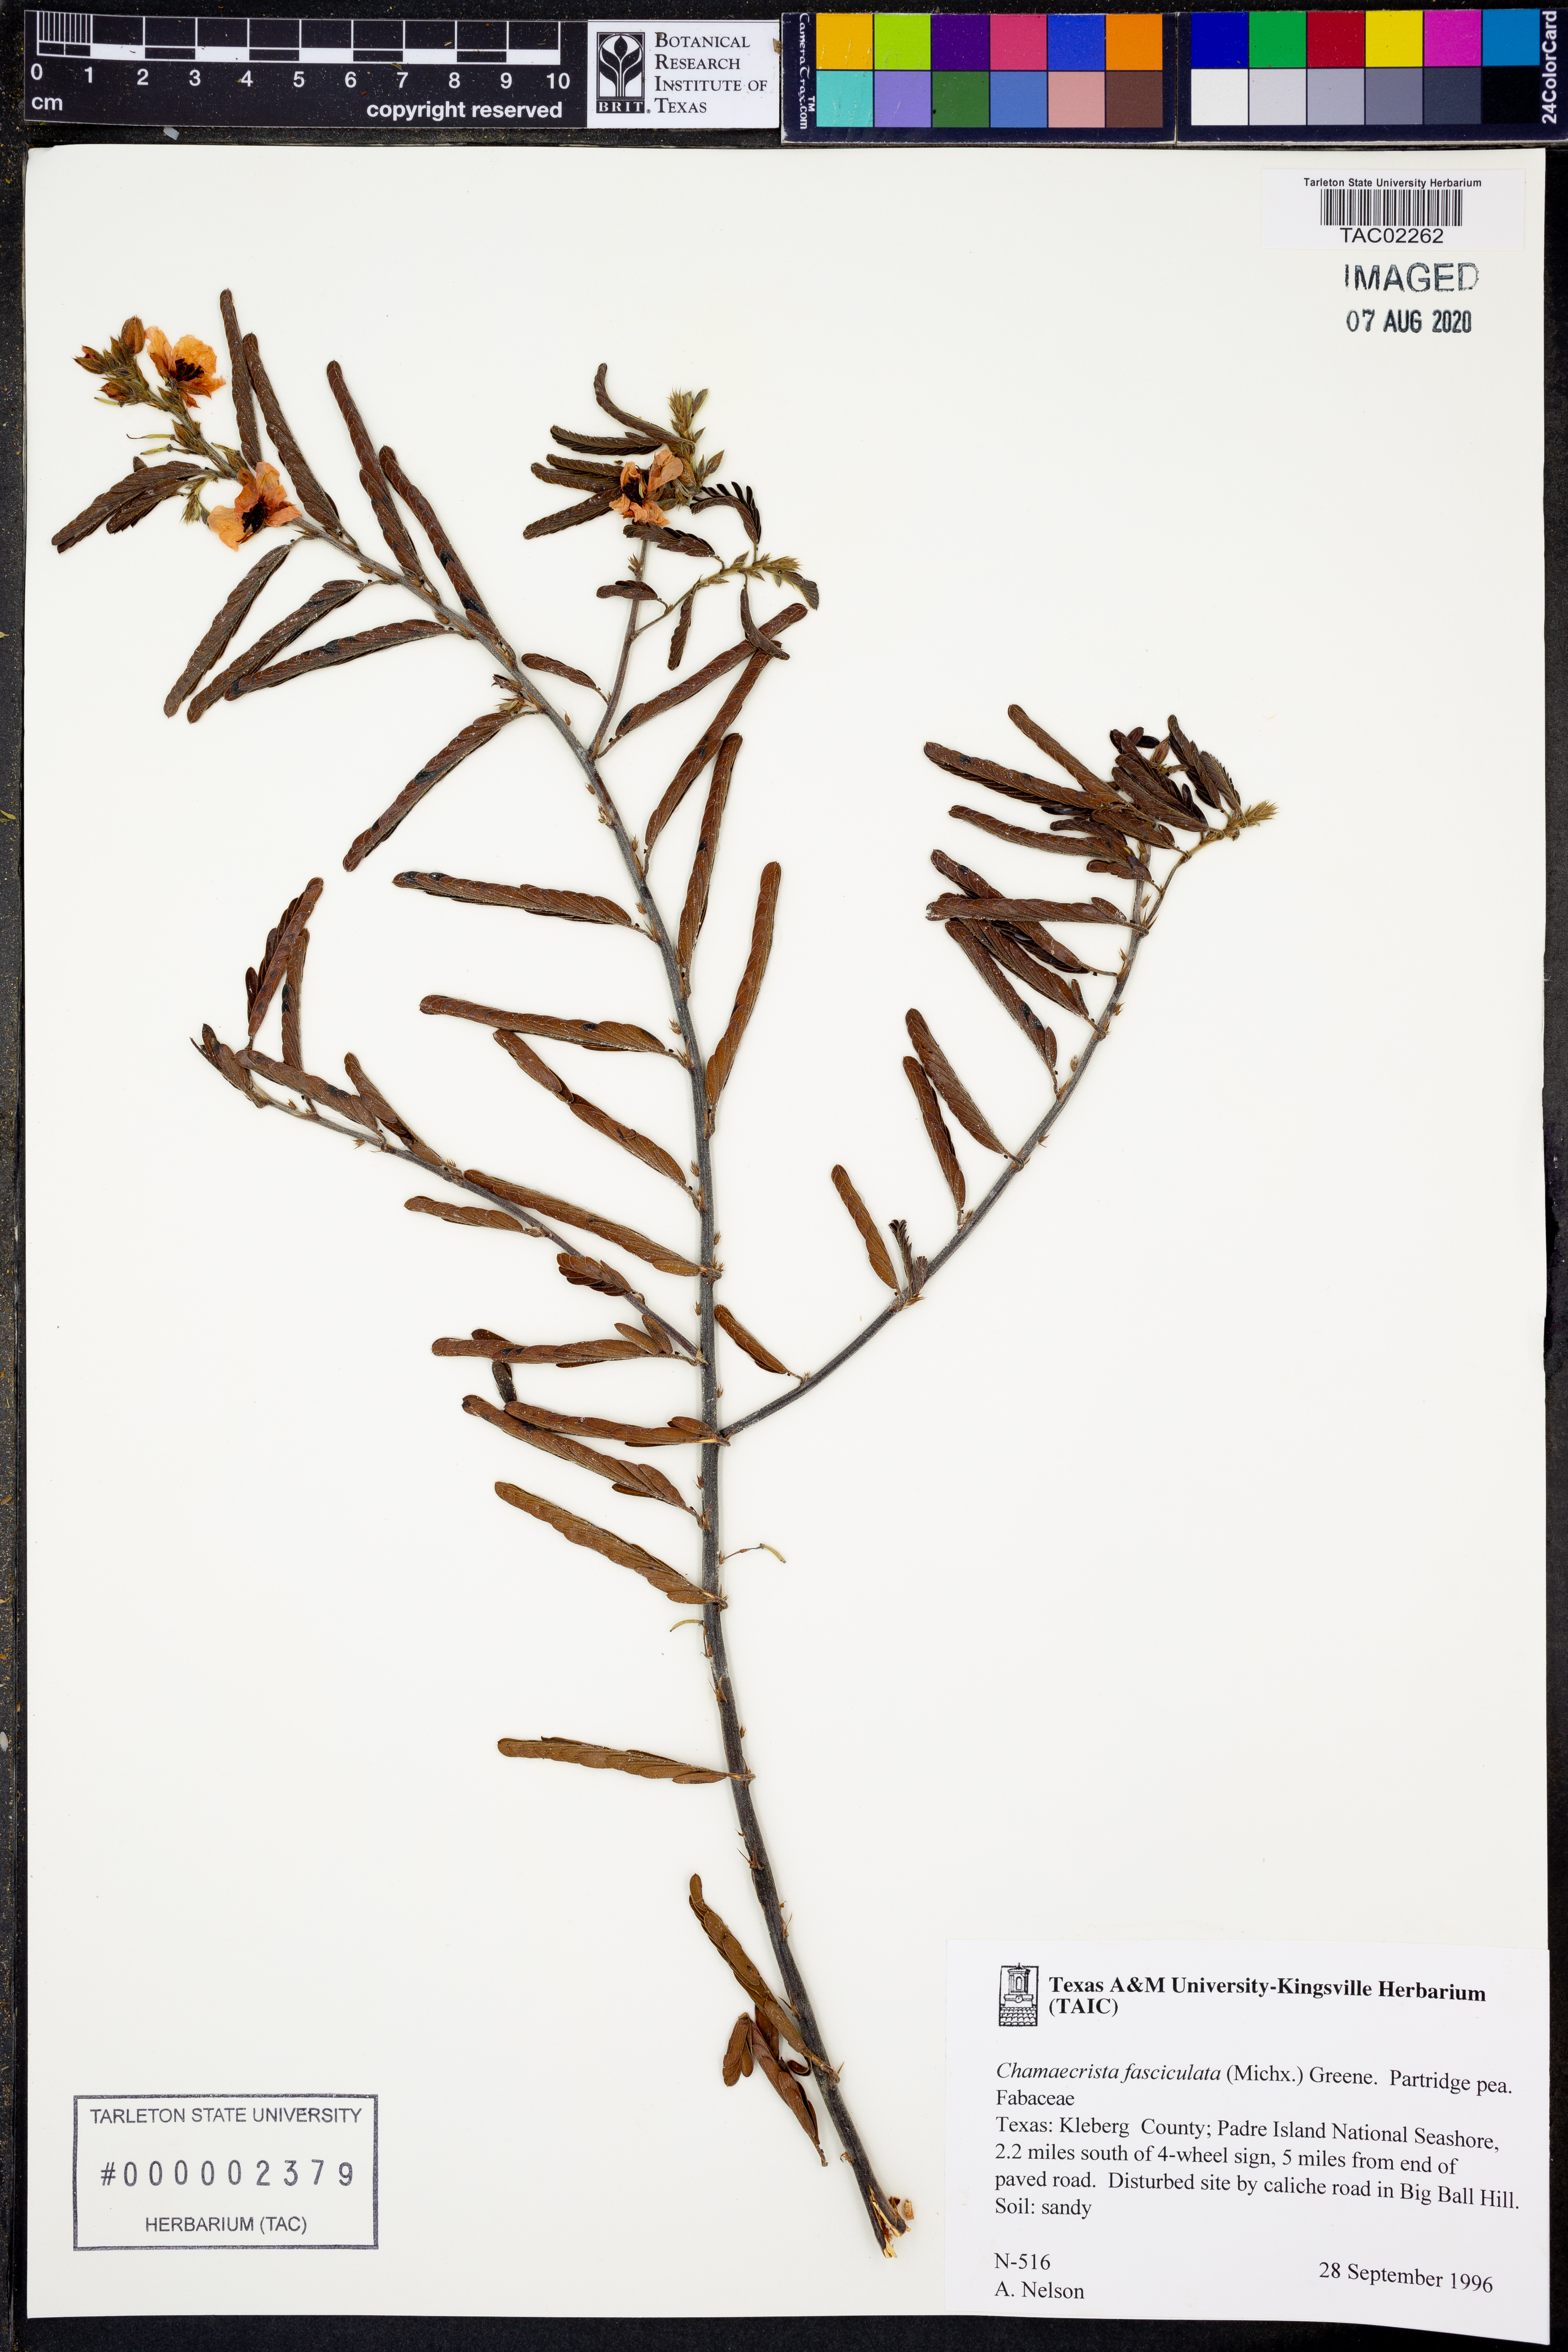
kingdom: Plantae
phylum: Tracheophyta
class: Magnoliopsida
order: Fabales
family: Fabaceae
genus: Chamaecrista
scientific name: Chamaecrista fasciculata
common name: Golden cassia
